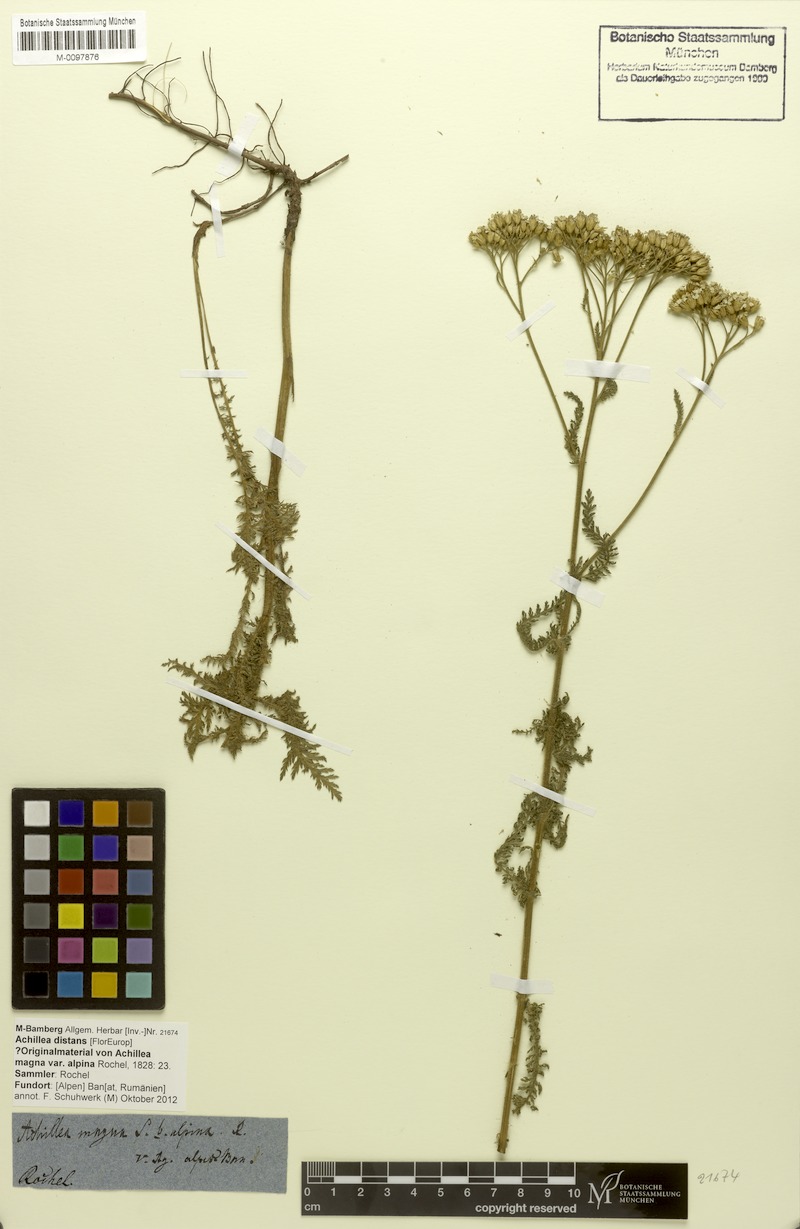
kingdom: Plantae
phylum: Tracheophyta
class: Magnoliopsida
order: Asterales
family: Asteraceae
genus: Achillea
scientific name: Achillea distans
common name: Tall yarrow
